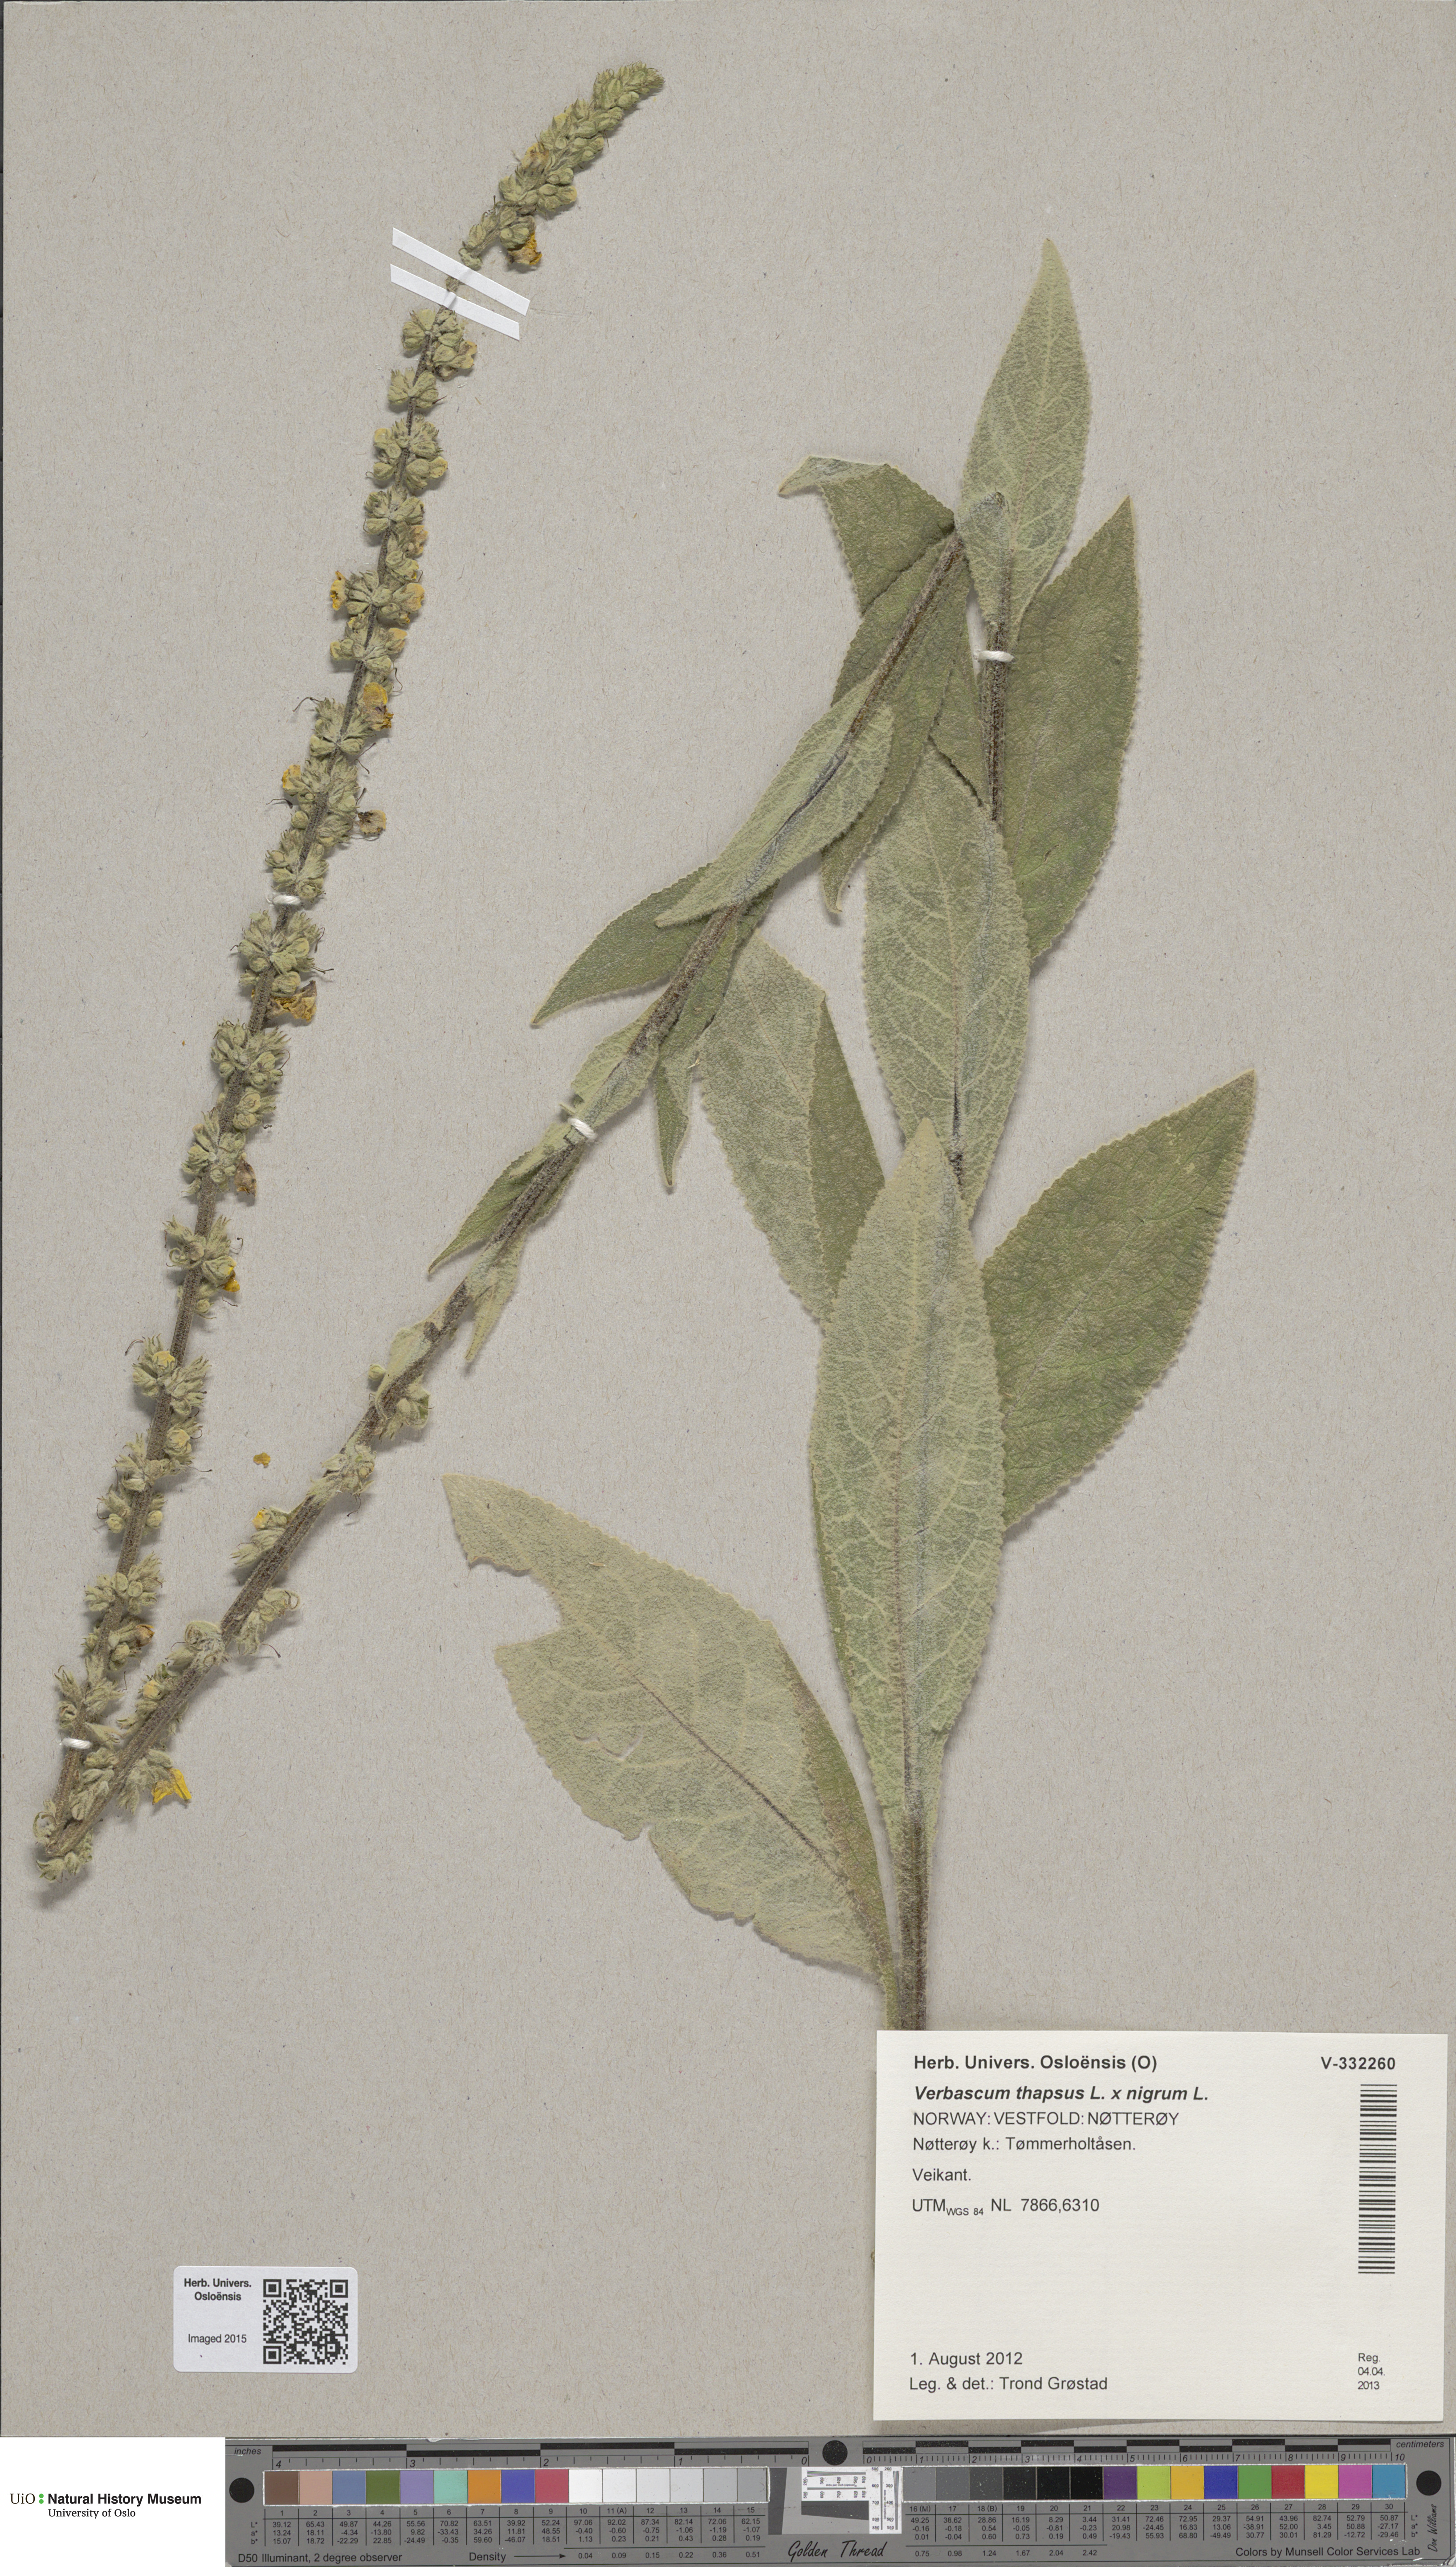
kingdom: Plantae
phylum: Tracheophyta
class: Magnoliopsida
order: Lamiales
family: Scrophulariaceae
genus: Verbascum
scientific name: Verbascum
